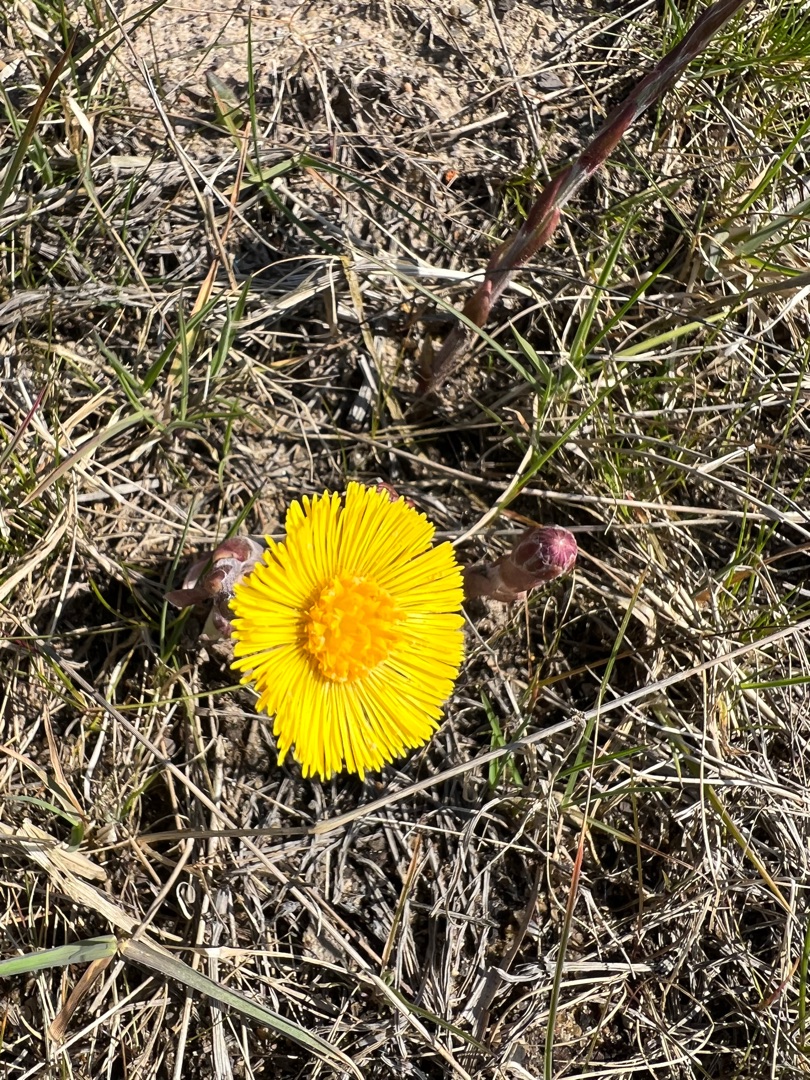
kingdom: Plantae
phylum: Tracheophyta
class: Magnoliopsida
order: Asterales
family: Asteraceae
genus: Tussilago
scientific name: Tussilago farfara
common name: Følfod
